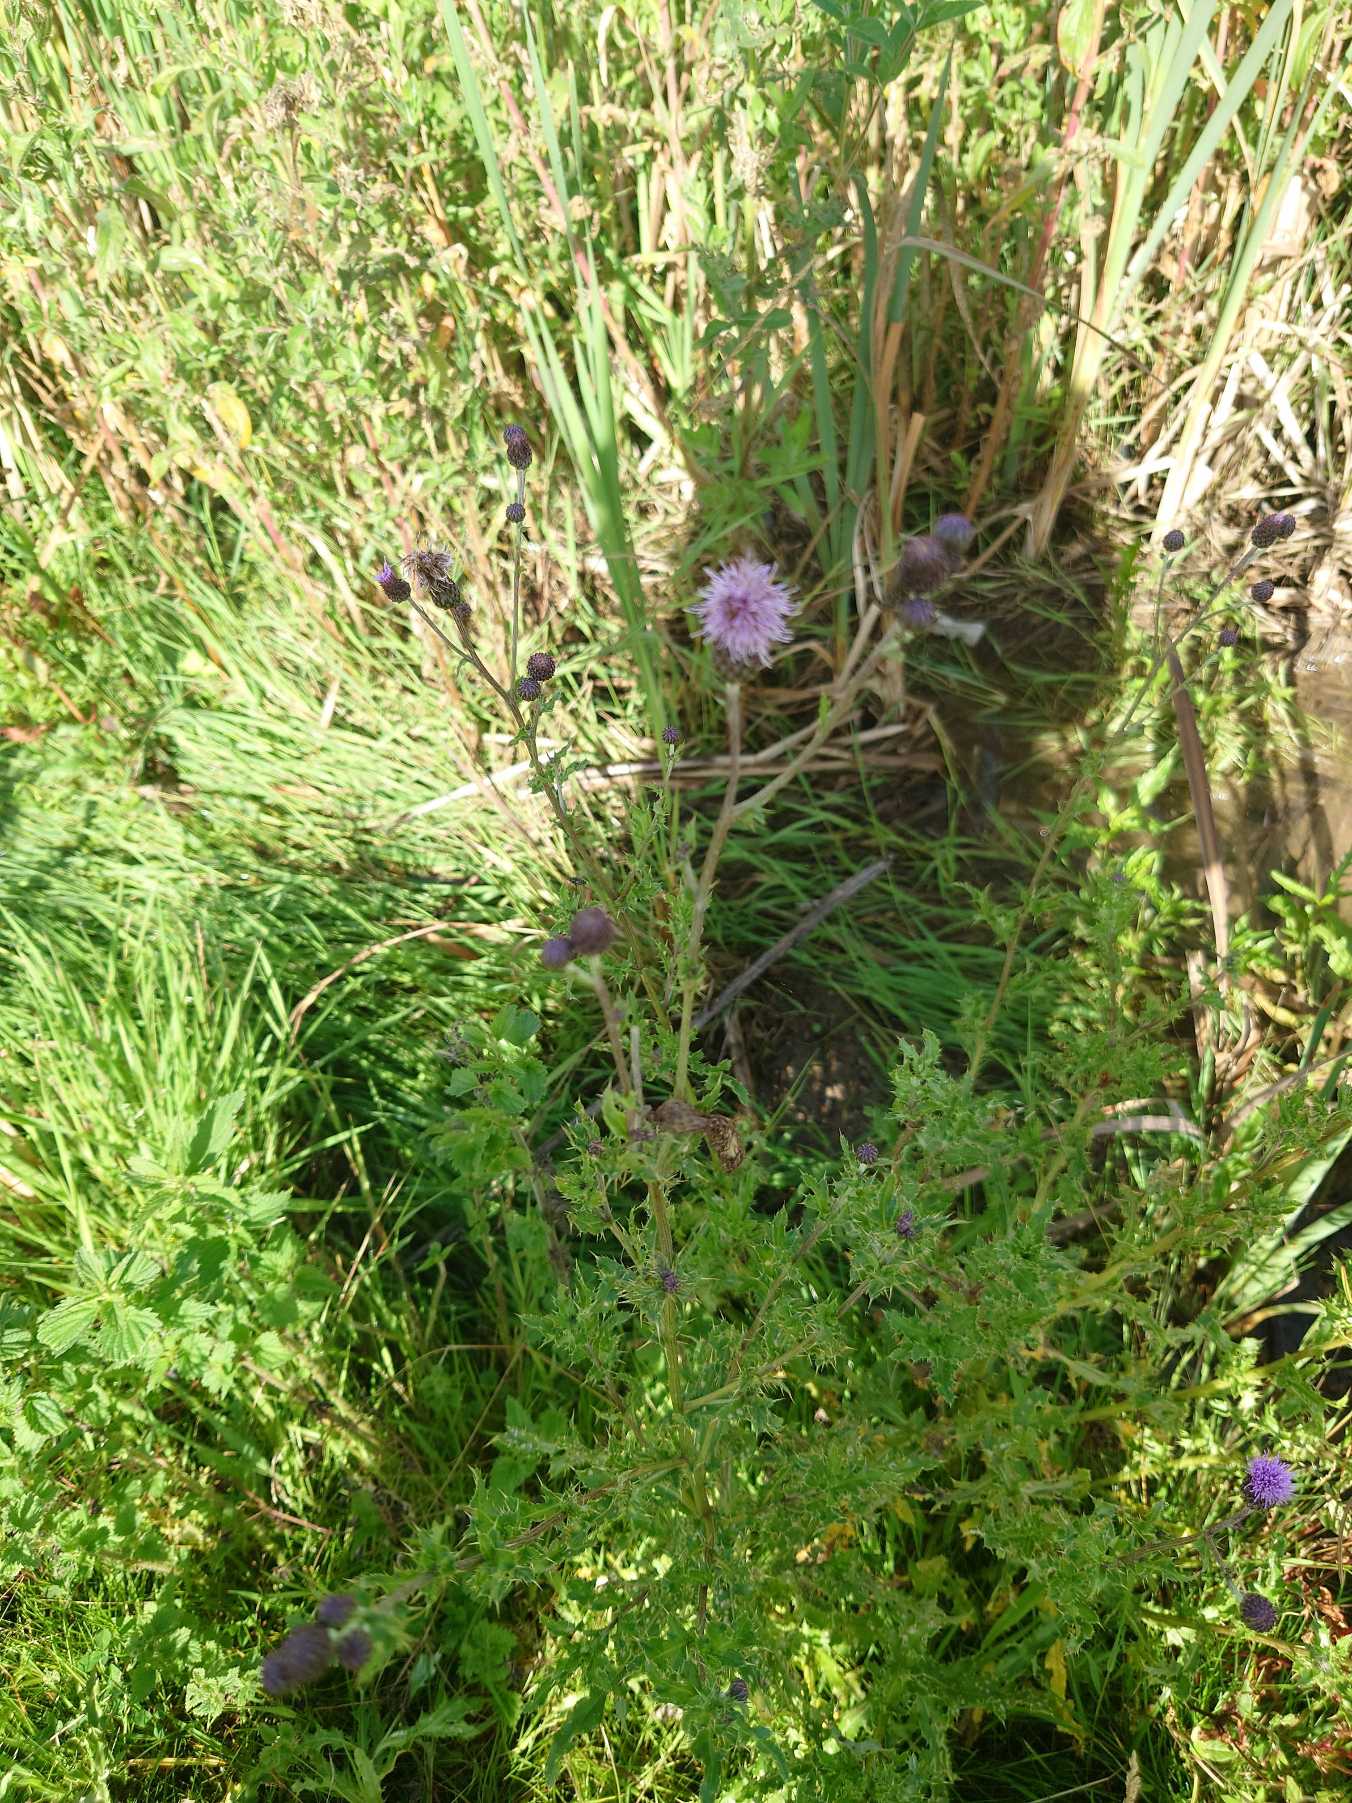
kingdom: Plantae
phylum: Tracheophyta
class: Magnoliopsida
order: Asterales
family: Asteraceae
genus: Cirsium
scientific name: Cirsium arvense
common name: Ager-tidsel
